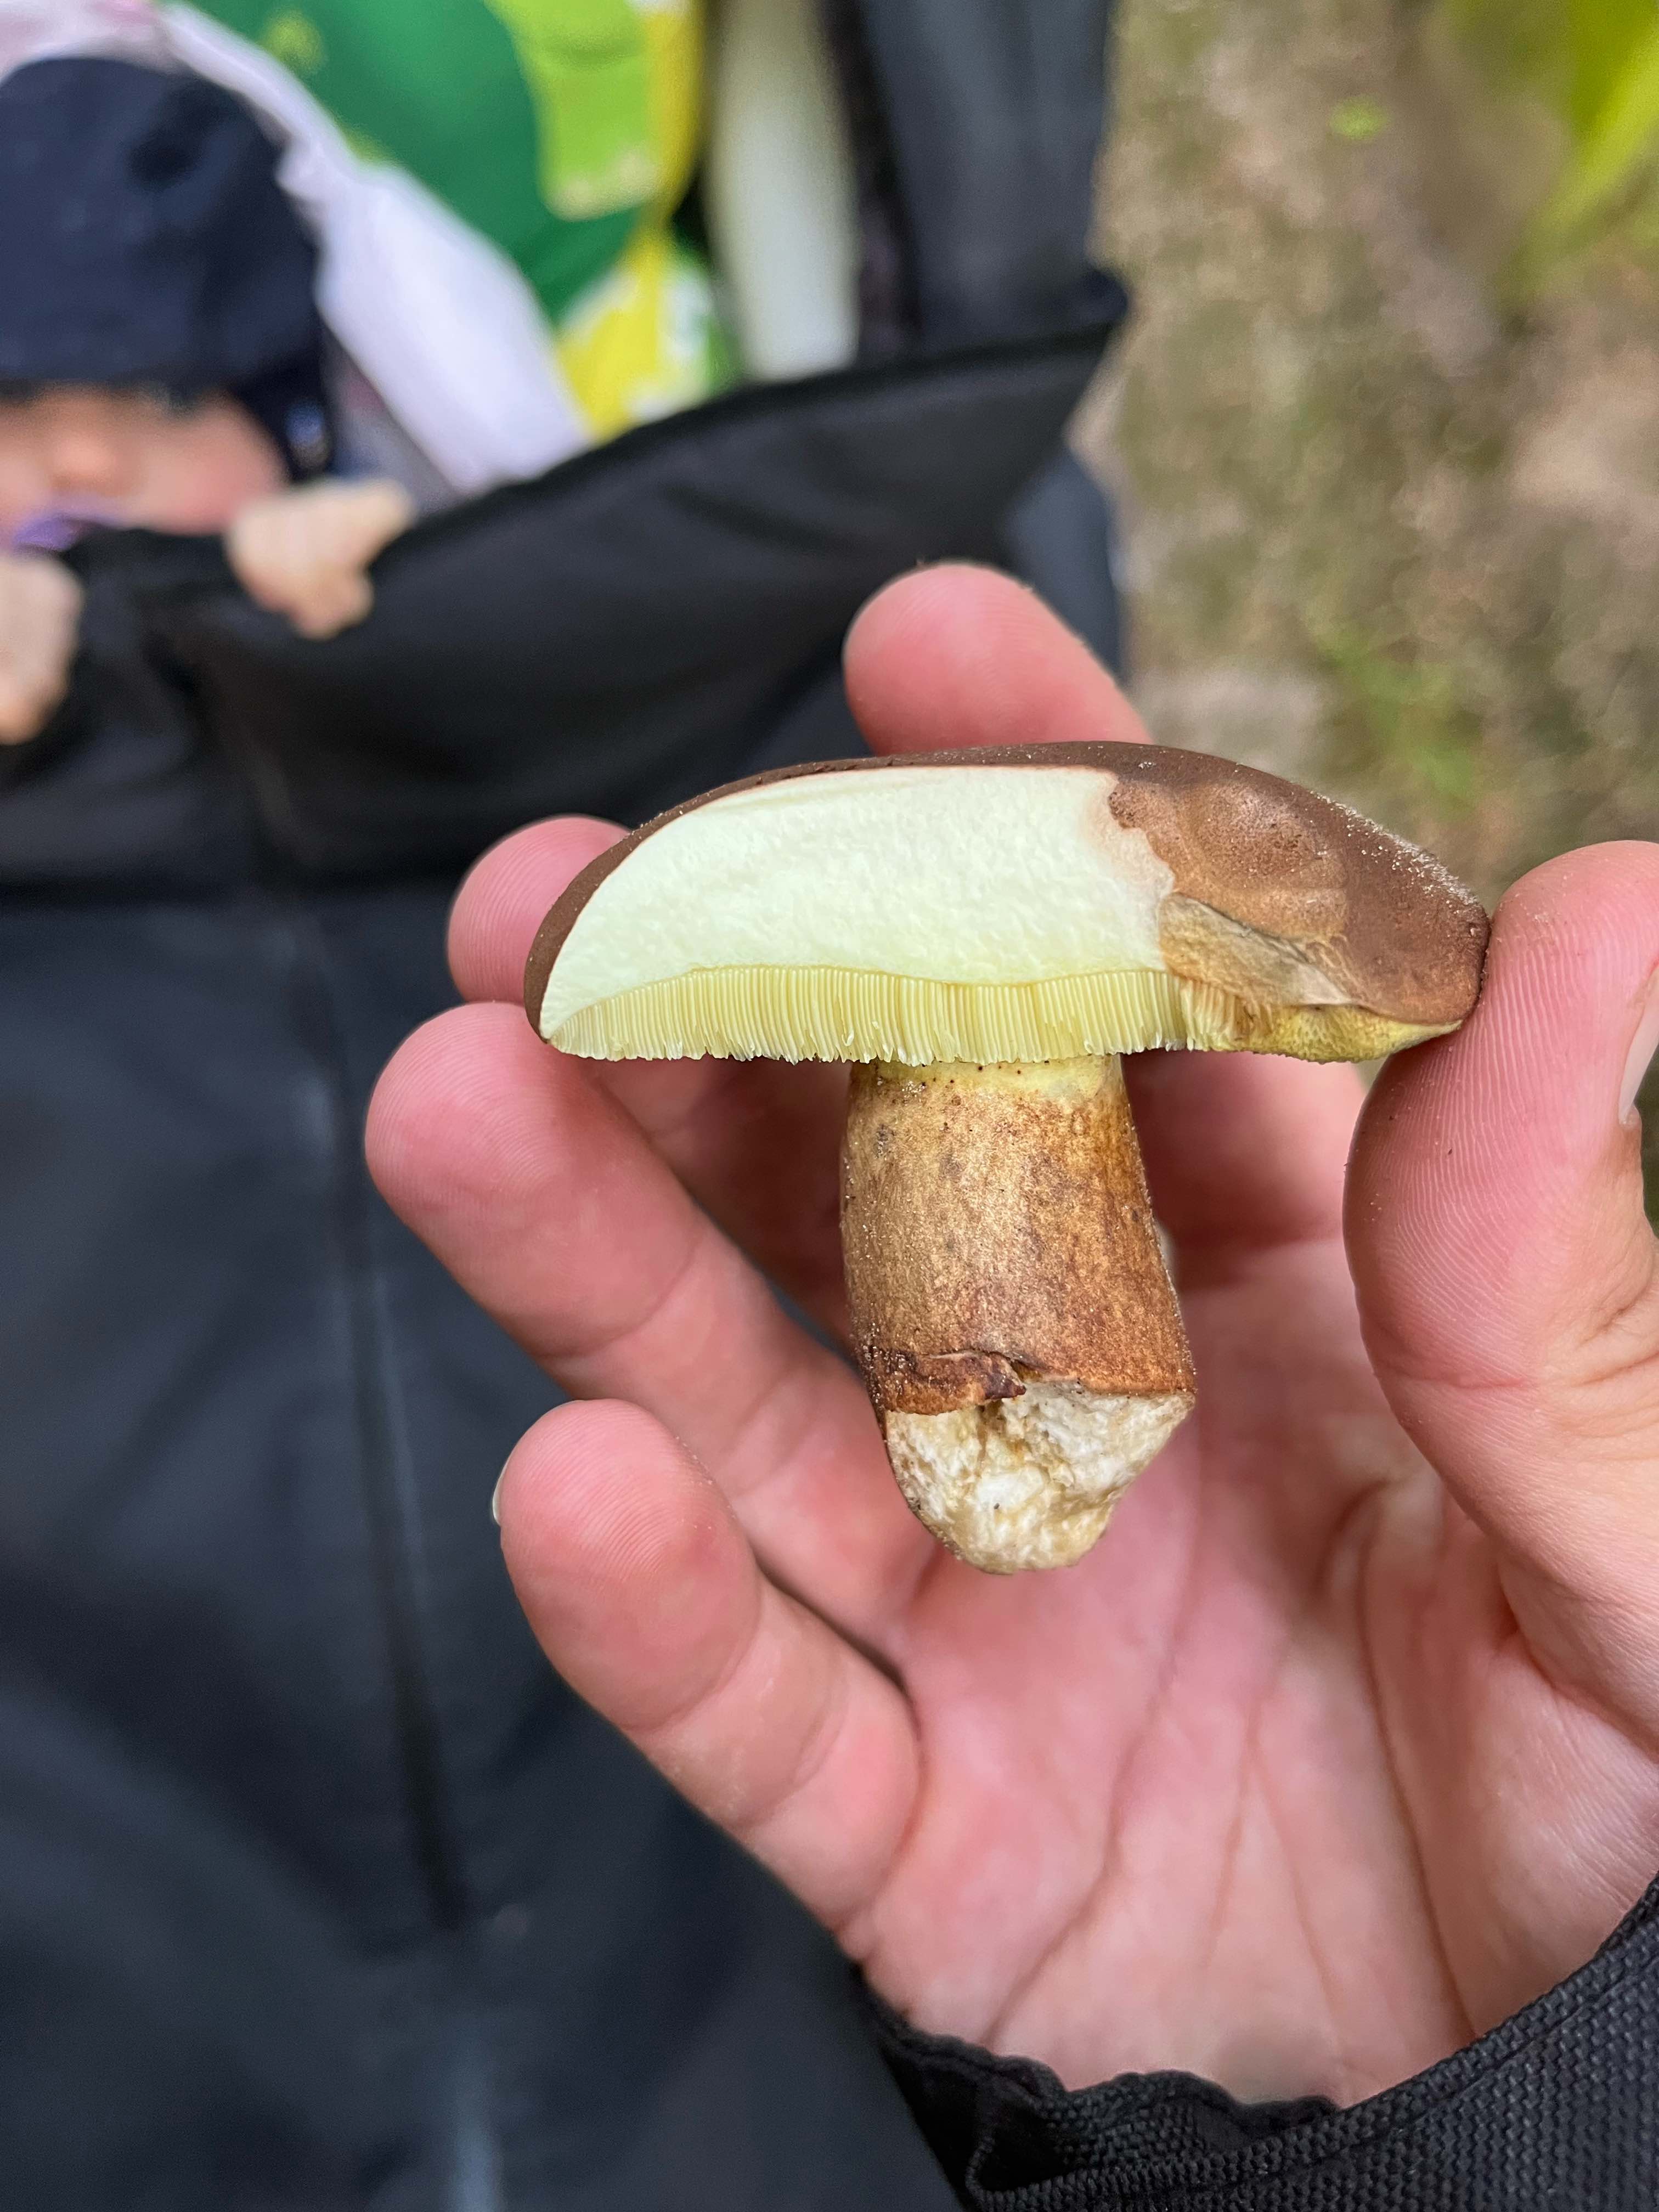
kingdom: Fungi
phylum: Basidiomycota
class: Agaricomycetes
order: Boletales
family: Boletaceae
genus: Imleria
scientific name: Imleria badia
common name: brunstokket rørhat
